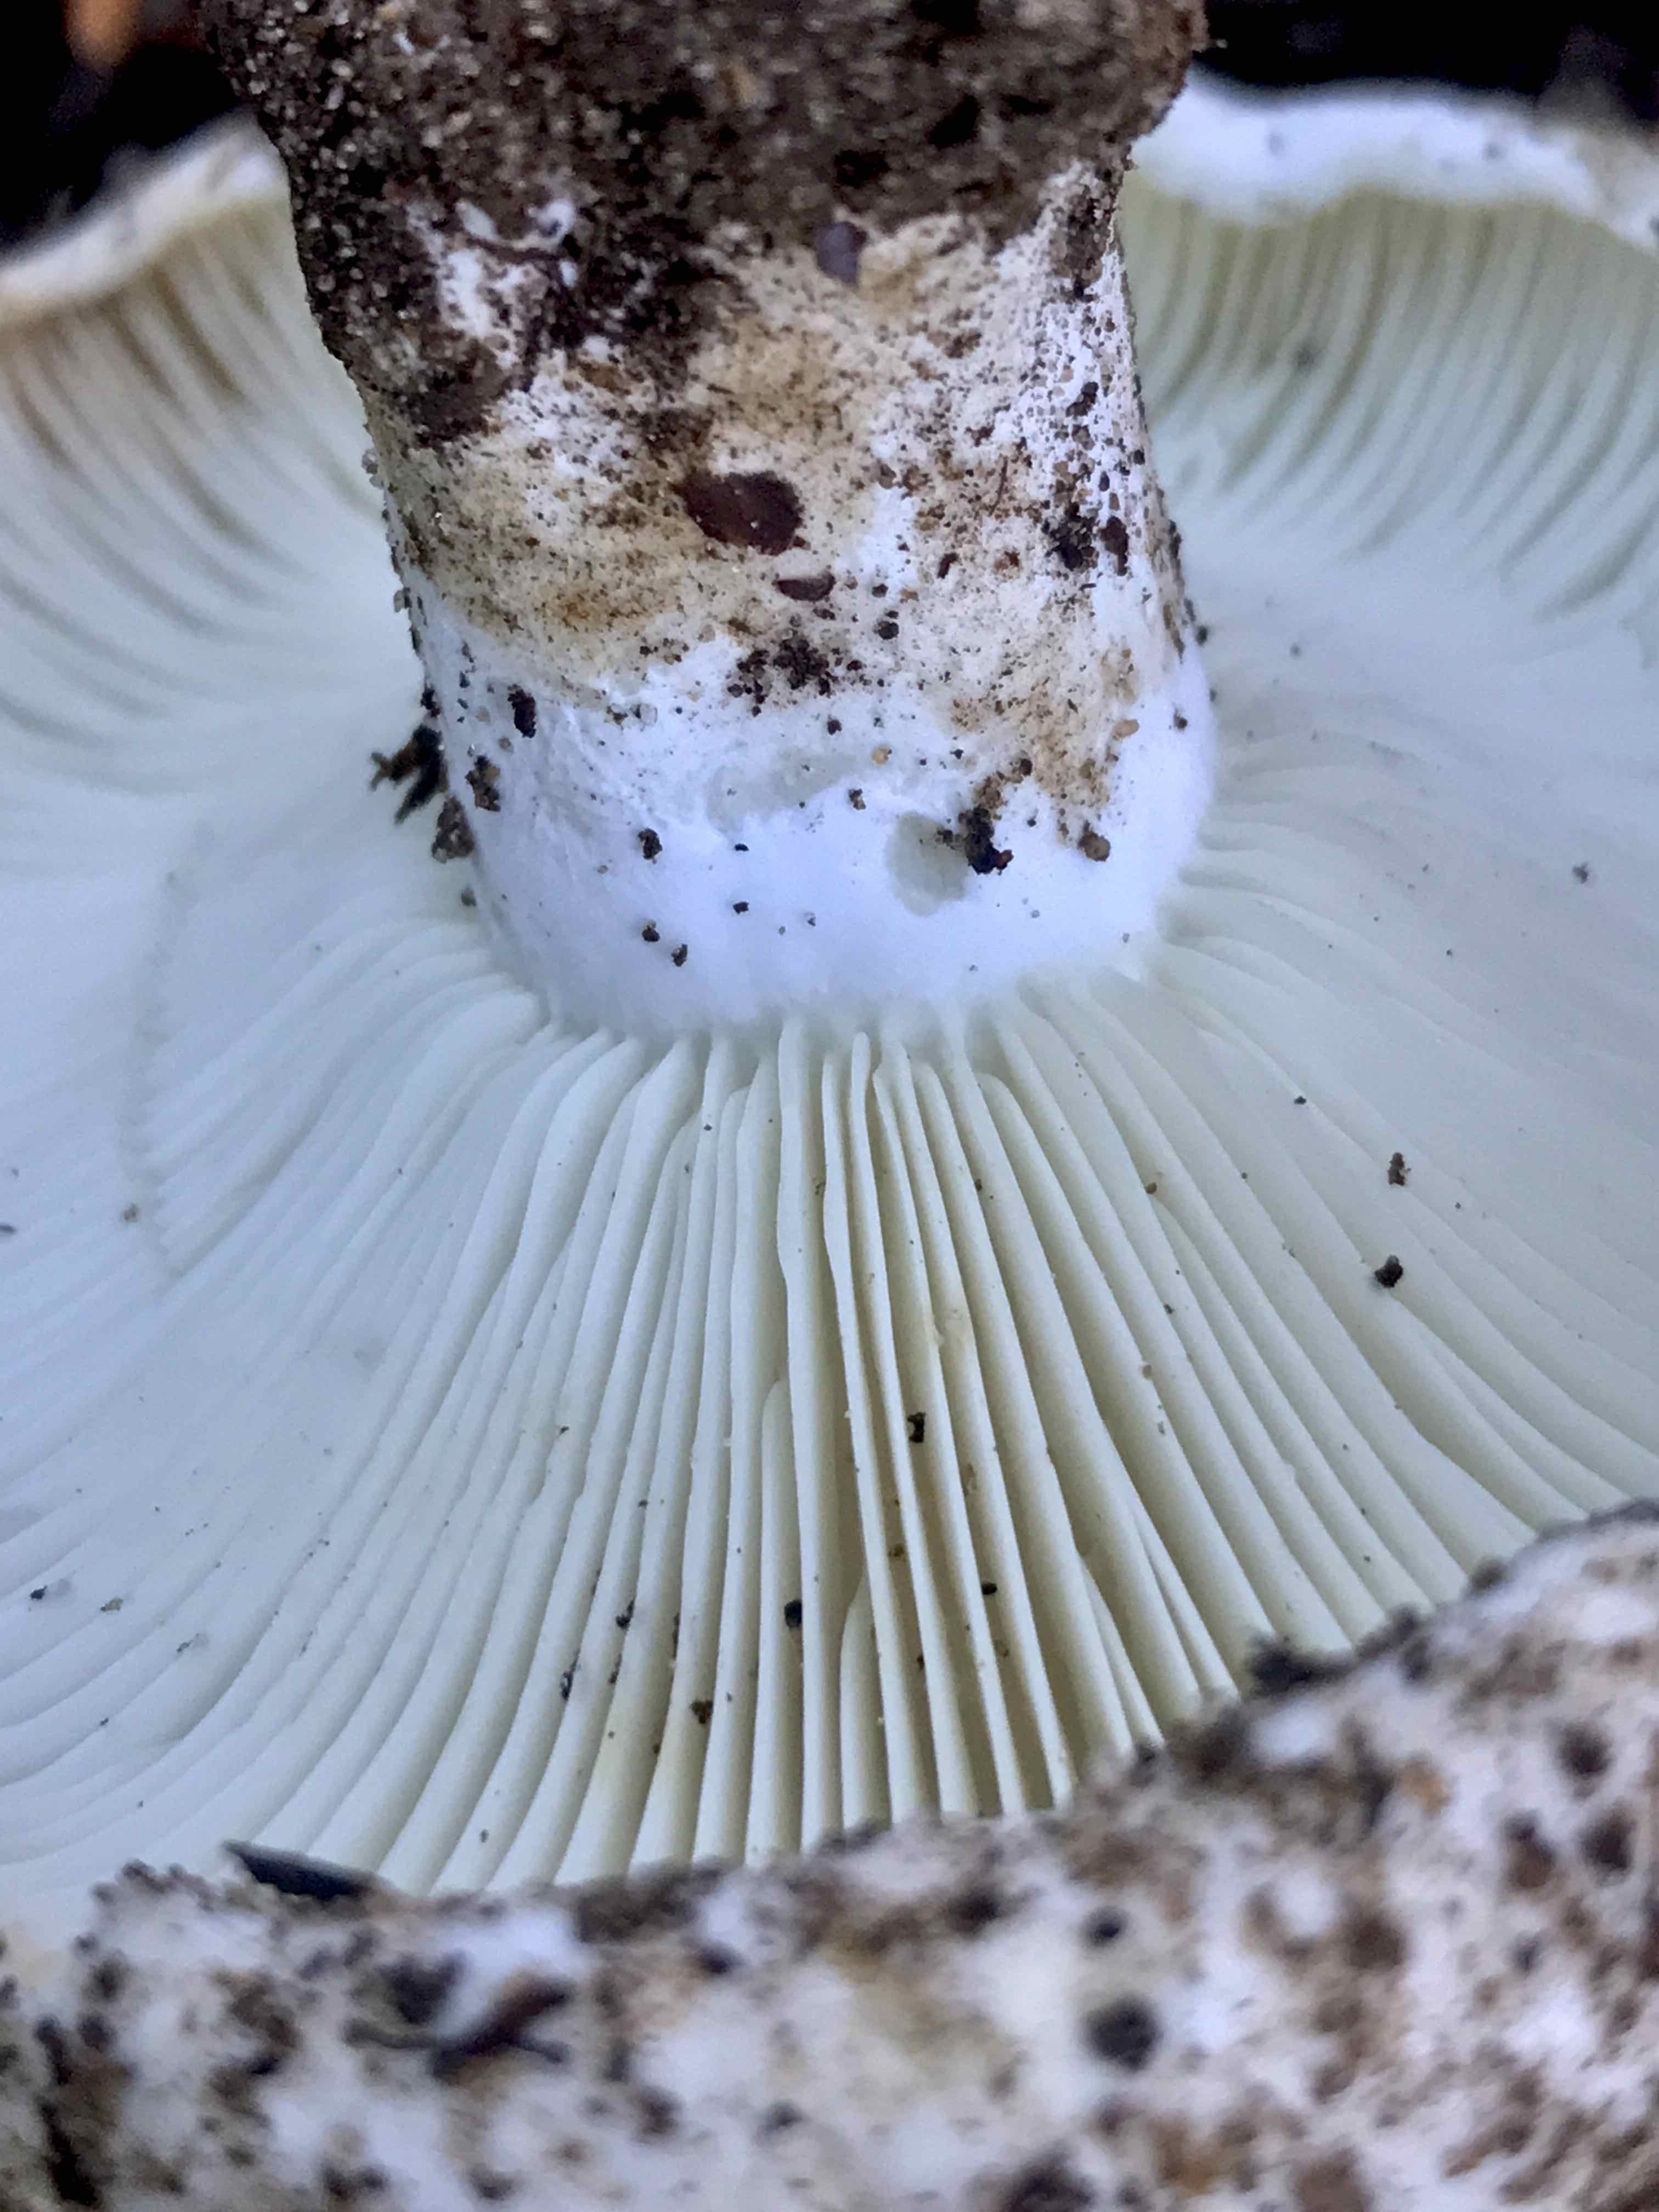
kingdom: Fungi
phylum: Basidiomycota
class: Agaricomycetes
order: Russulales
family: Russulaceae
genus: Russula
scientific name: Russula chloroides
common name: grønhalset tragt-skørhat
